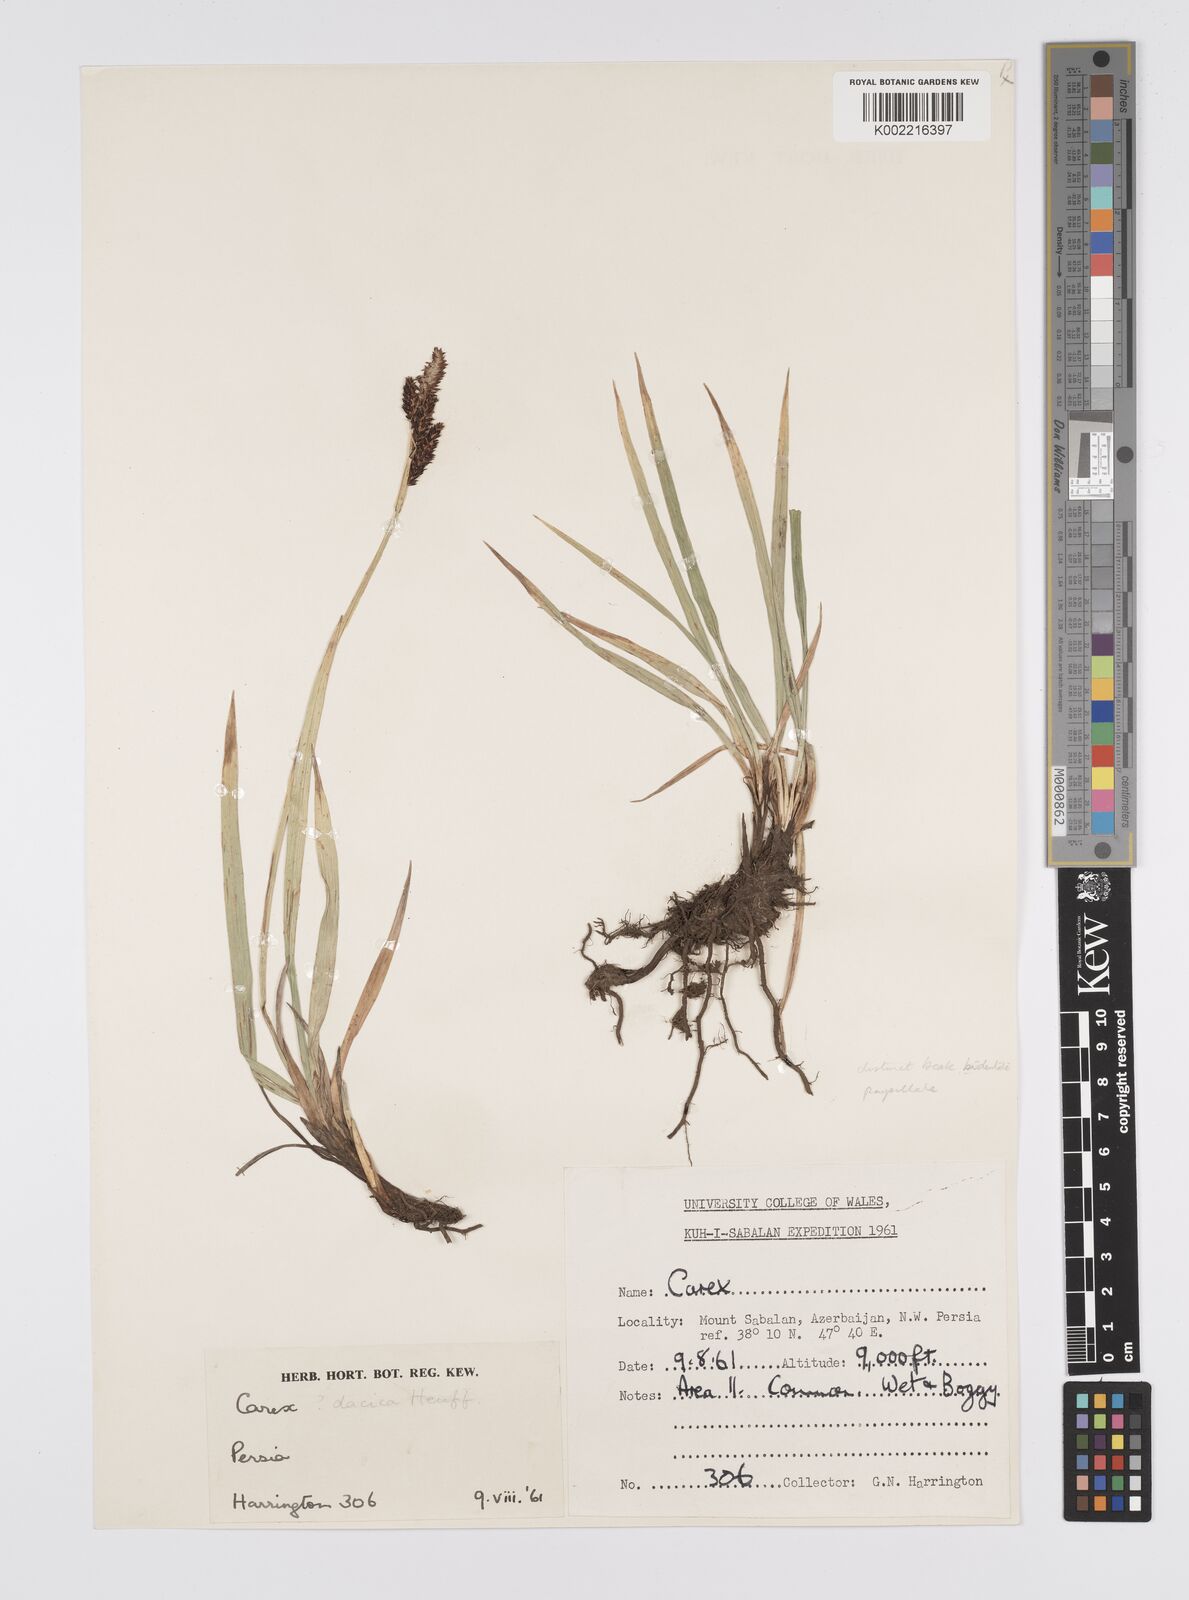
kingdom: Plantae
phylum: Tracheophyta
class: Liliopsida
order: Poales
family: Cyperaceae
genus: Carex
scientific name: Carex dacica
